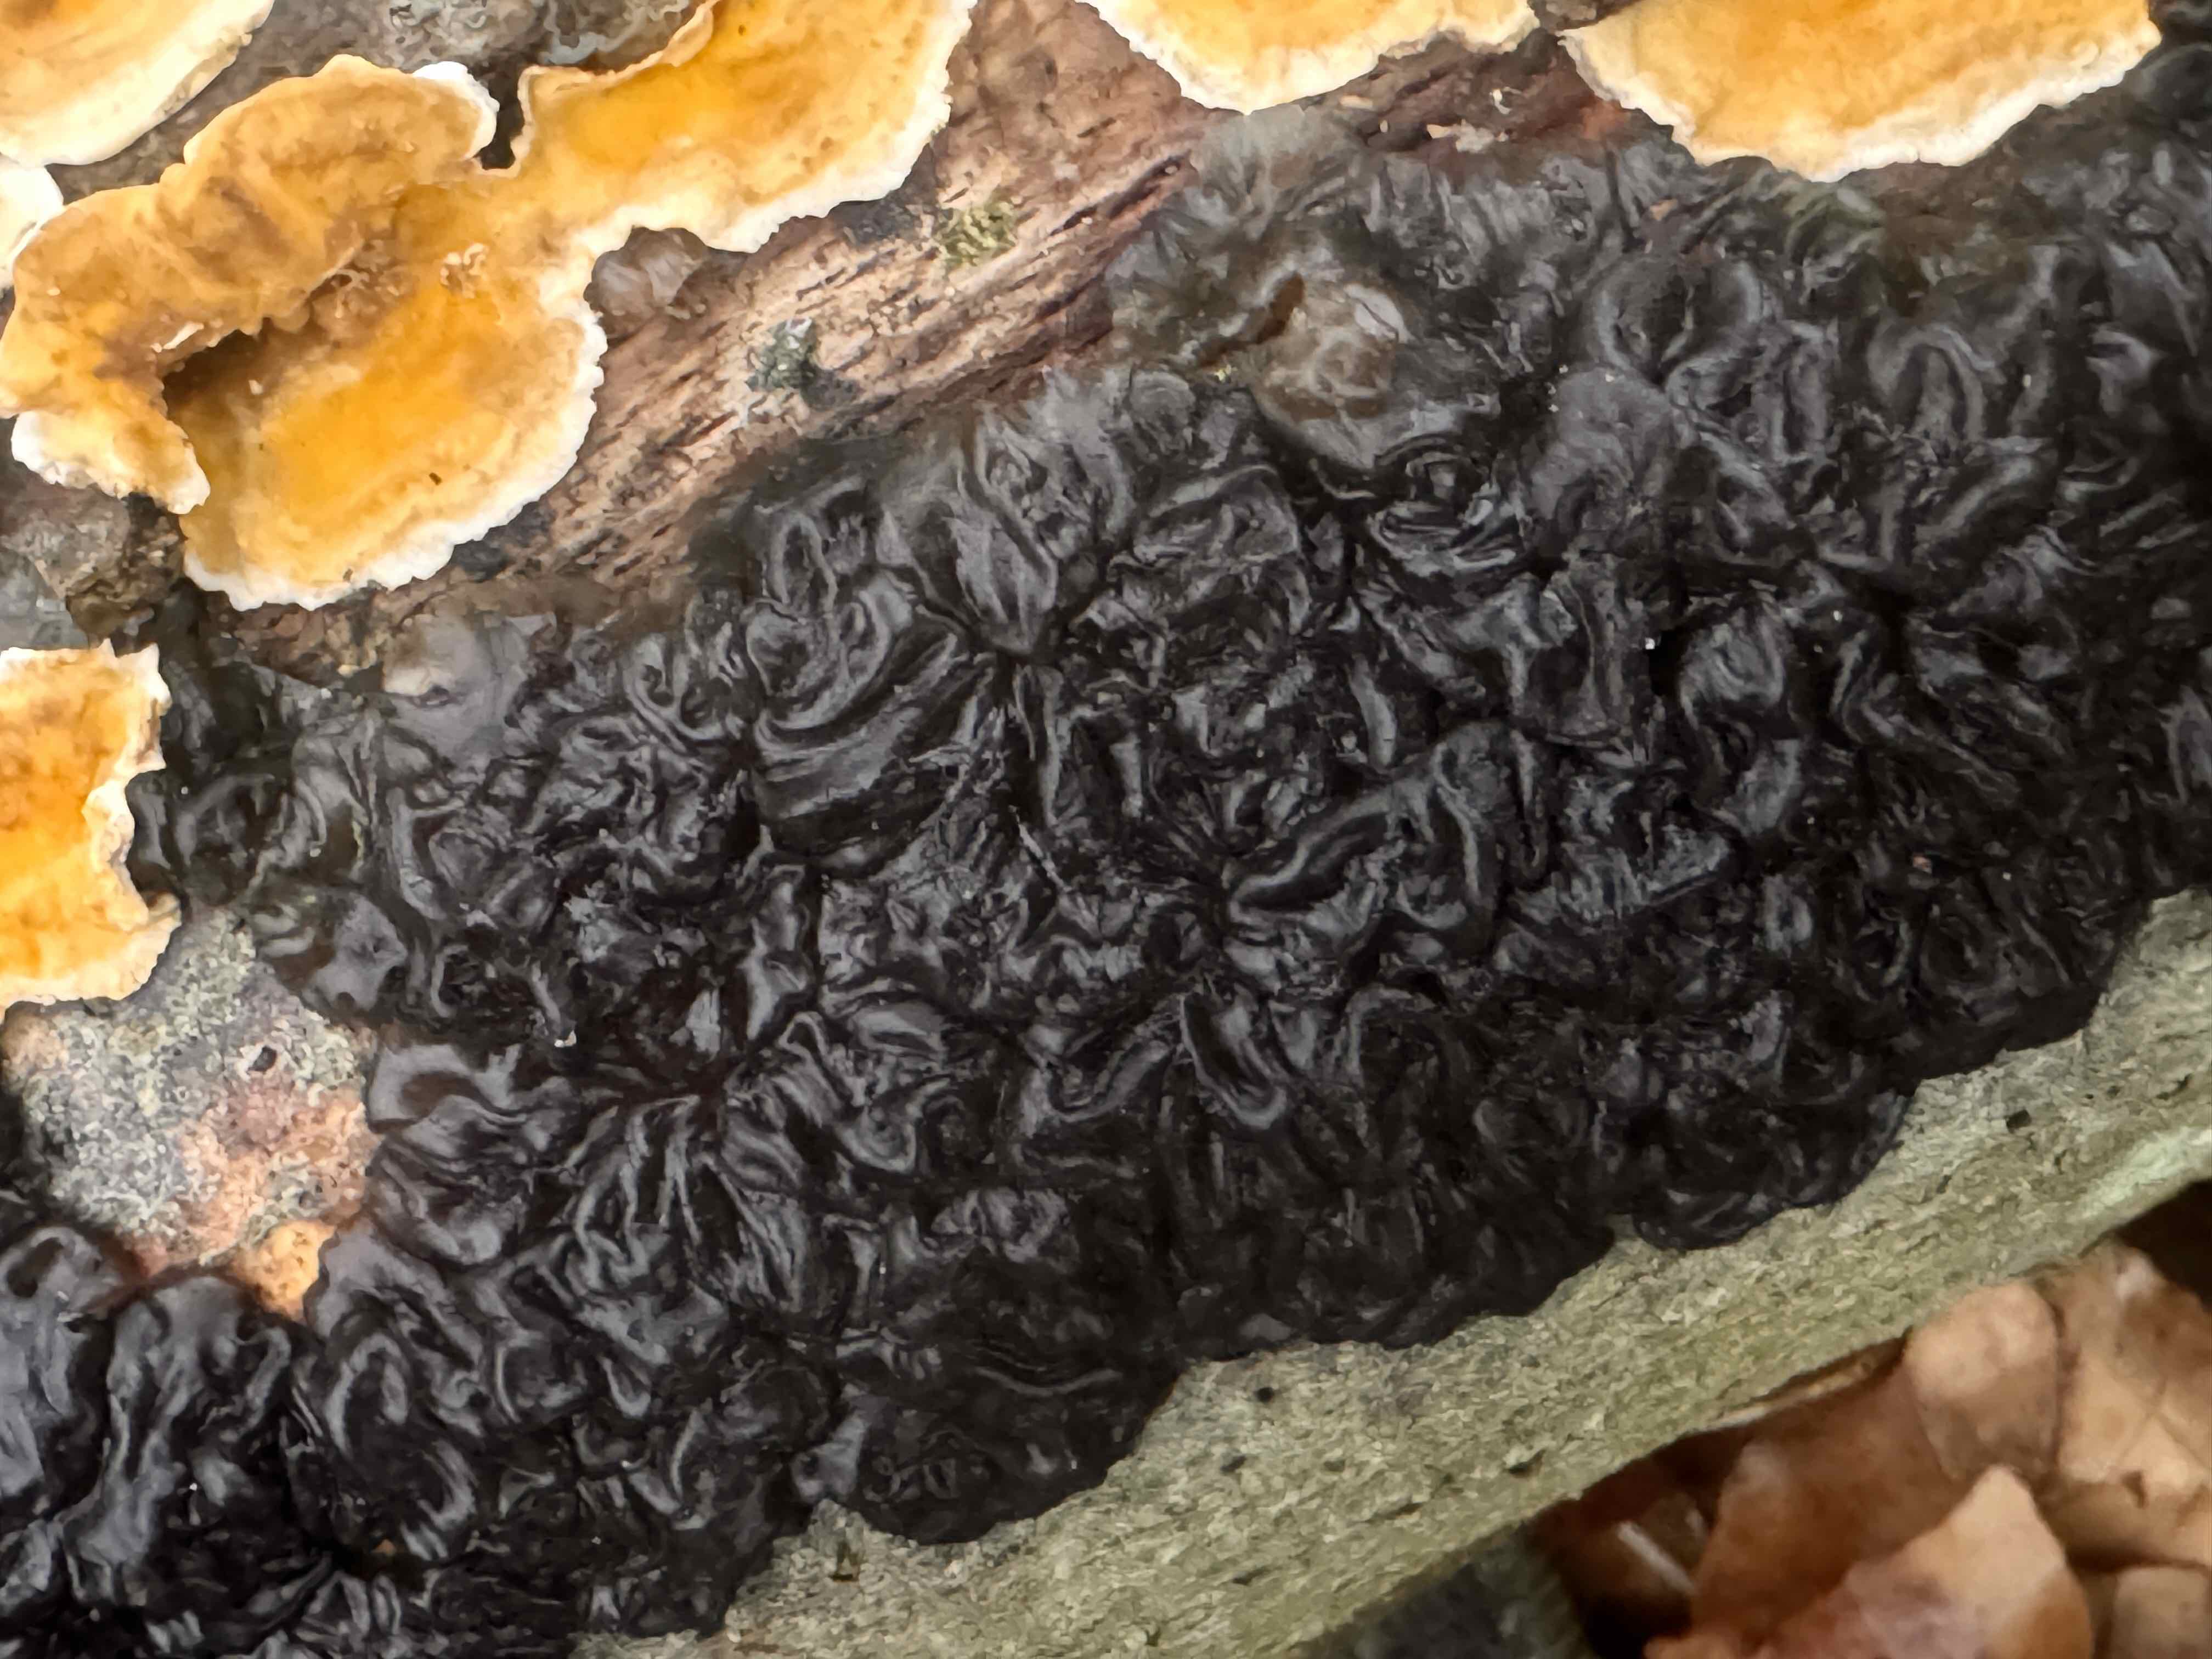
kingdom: Fungi
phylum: Basidiomycota
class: Agaricomycetes
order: Auriculariales
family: Auriculariaceae
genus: Exidia
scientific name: Exidia nigricans
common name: almindelig bævretop
